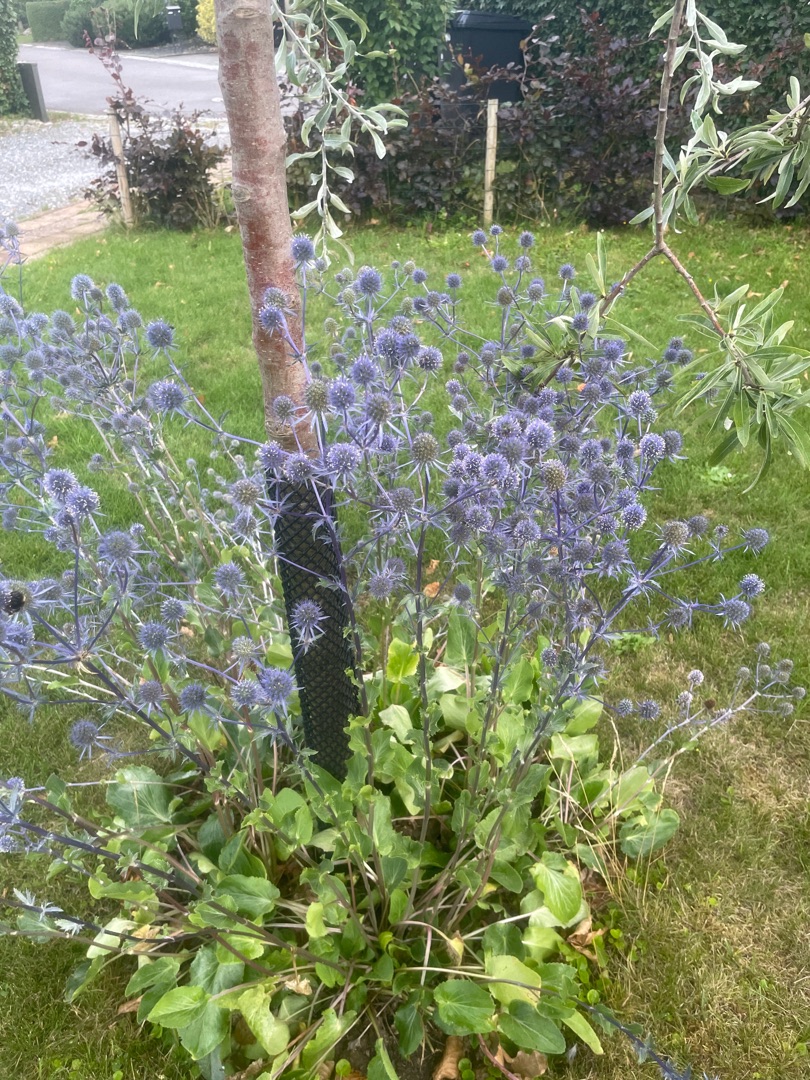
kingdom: Plantae
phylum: Tracheophyta
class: Magnoliopsida
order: Apiales
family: Apiaceae
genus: Eryngium
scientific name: Eryngium planum
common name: Russisk mandstro
